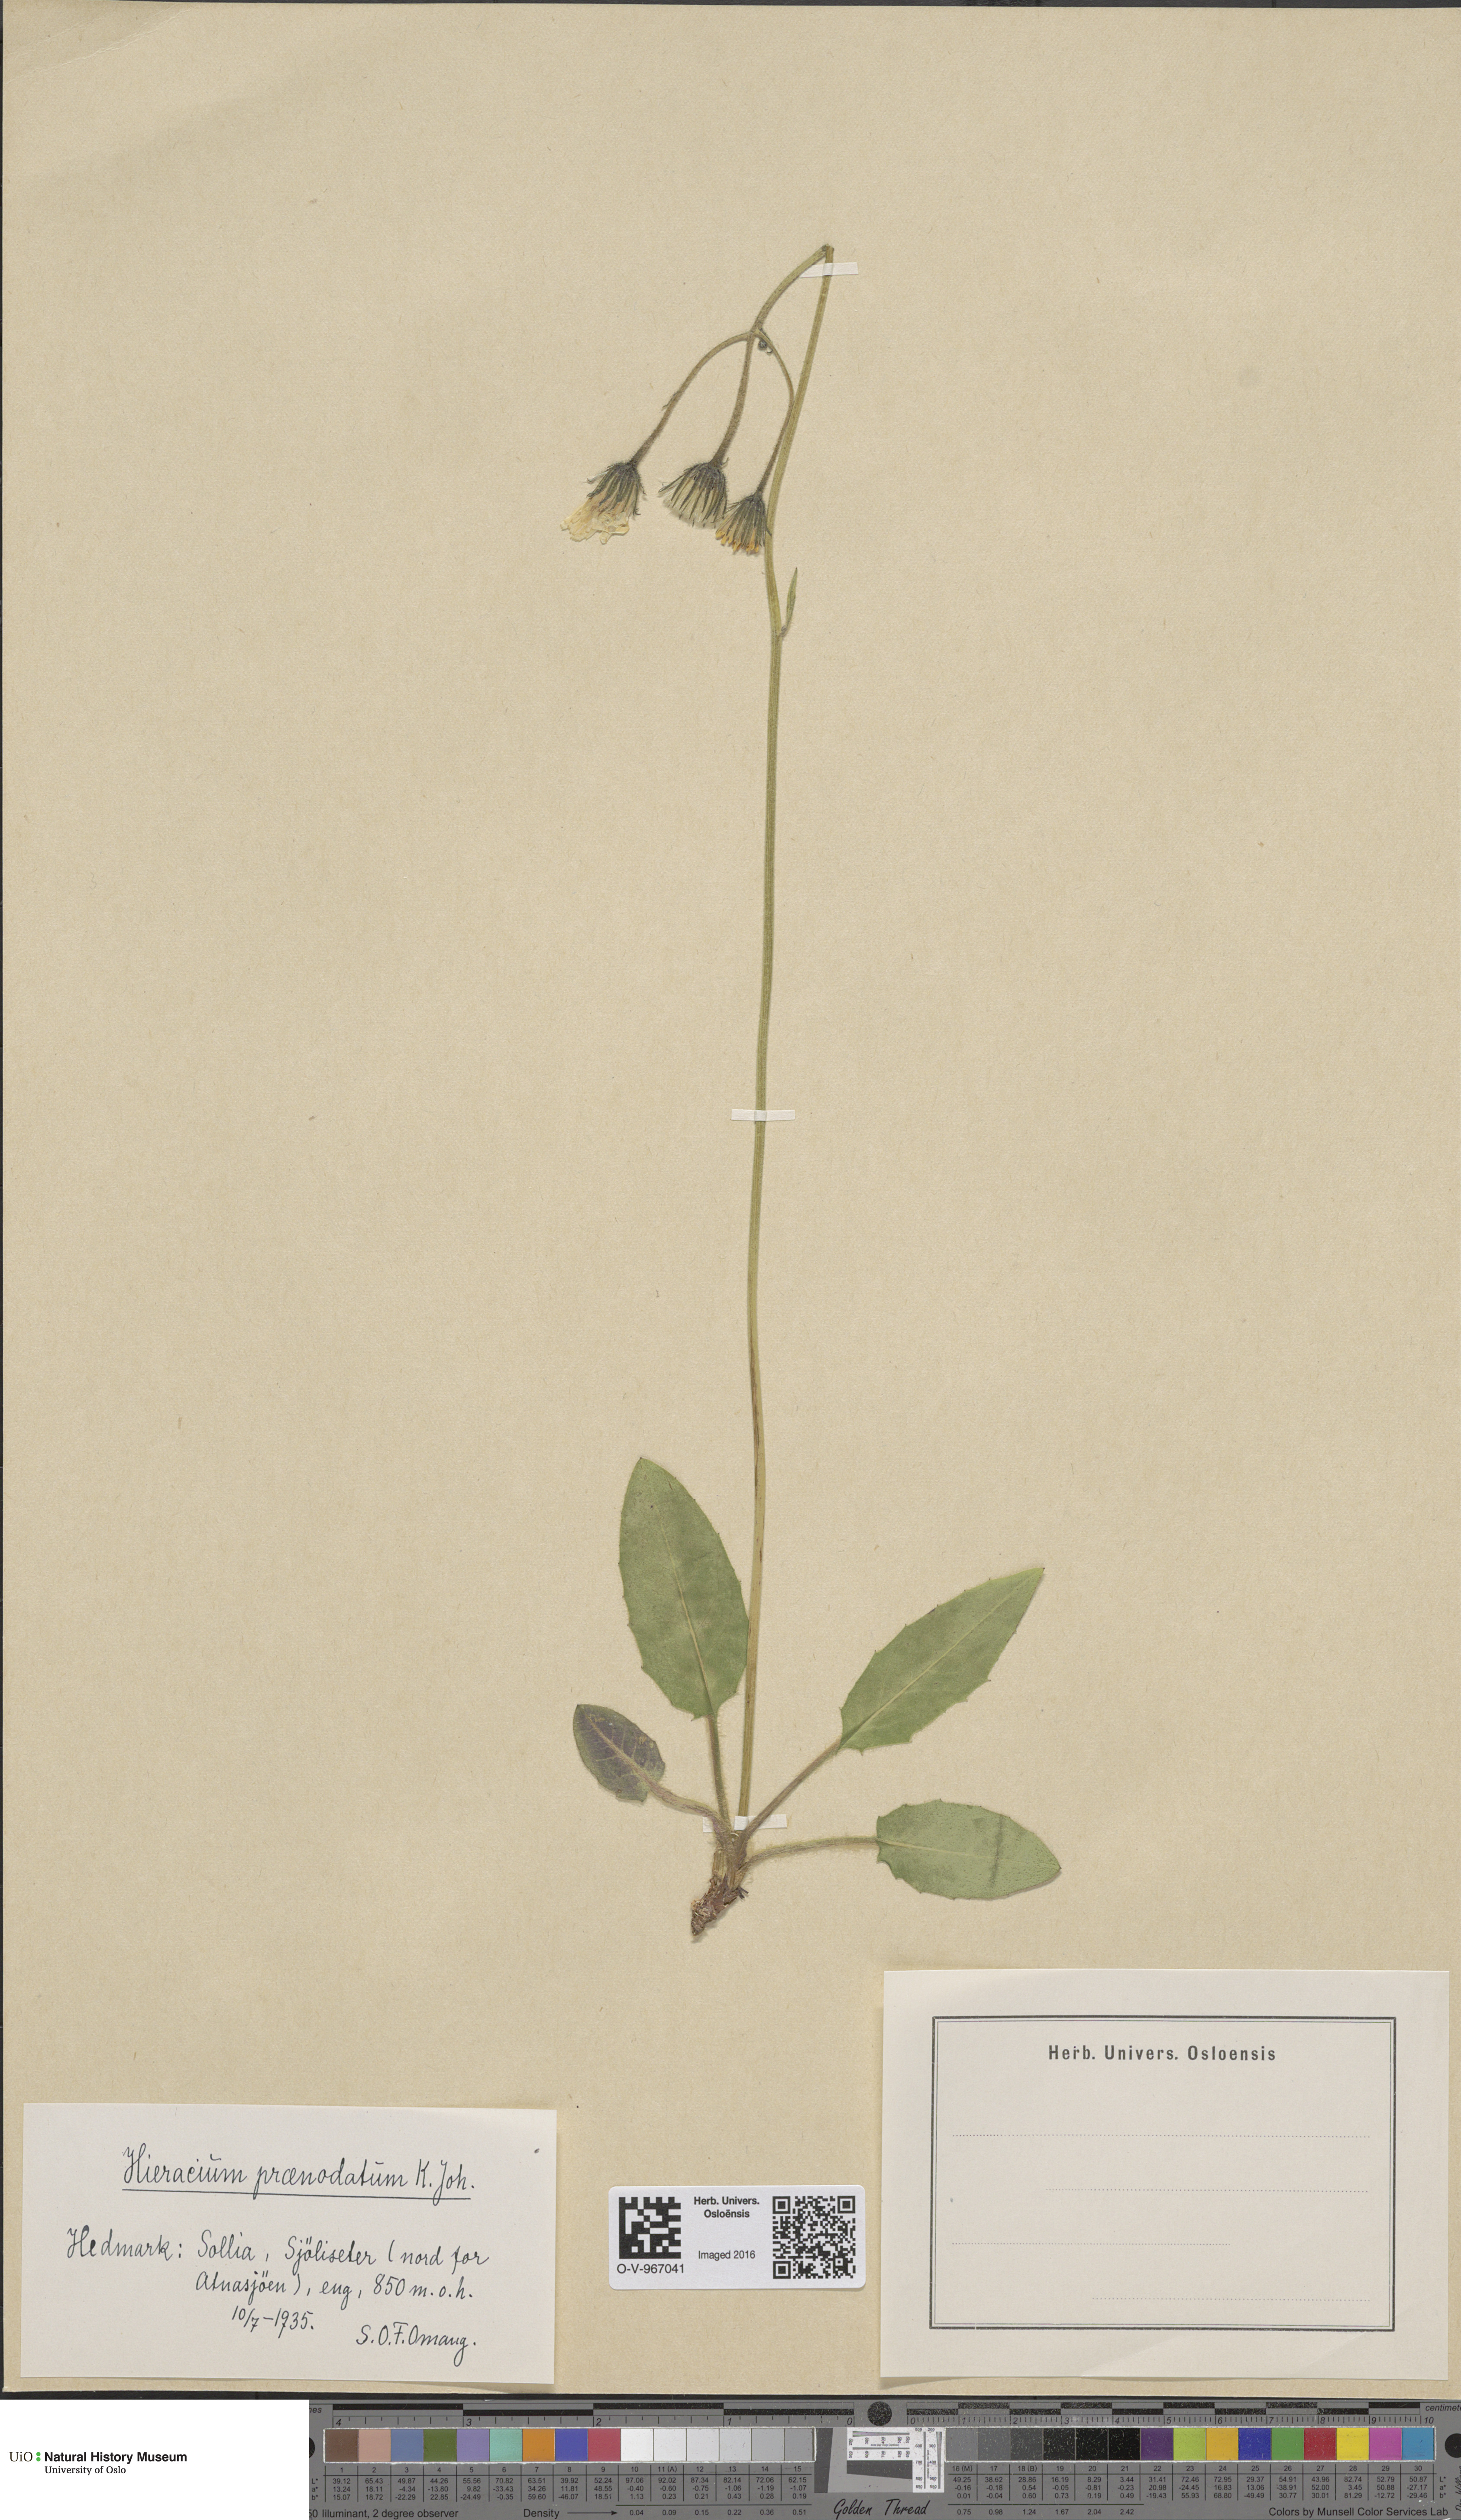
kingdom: Plantae
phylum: Tracheophyta
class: Magnoliopsida
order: Asterales
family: Asteraceae
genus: Hieracium
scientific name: Hieracium praenodatum
